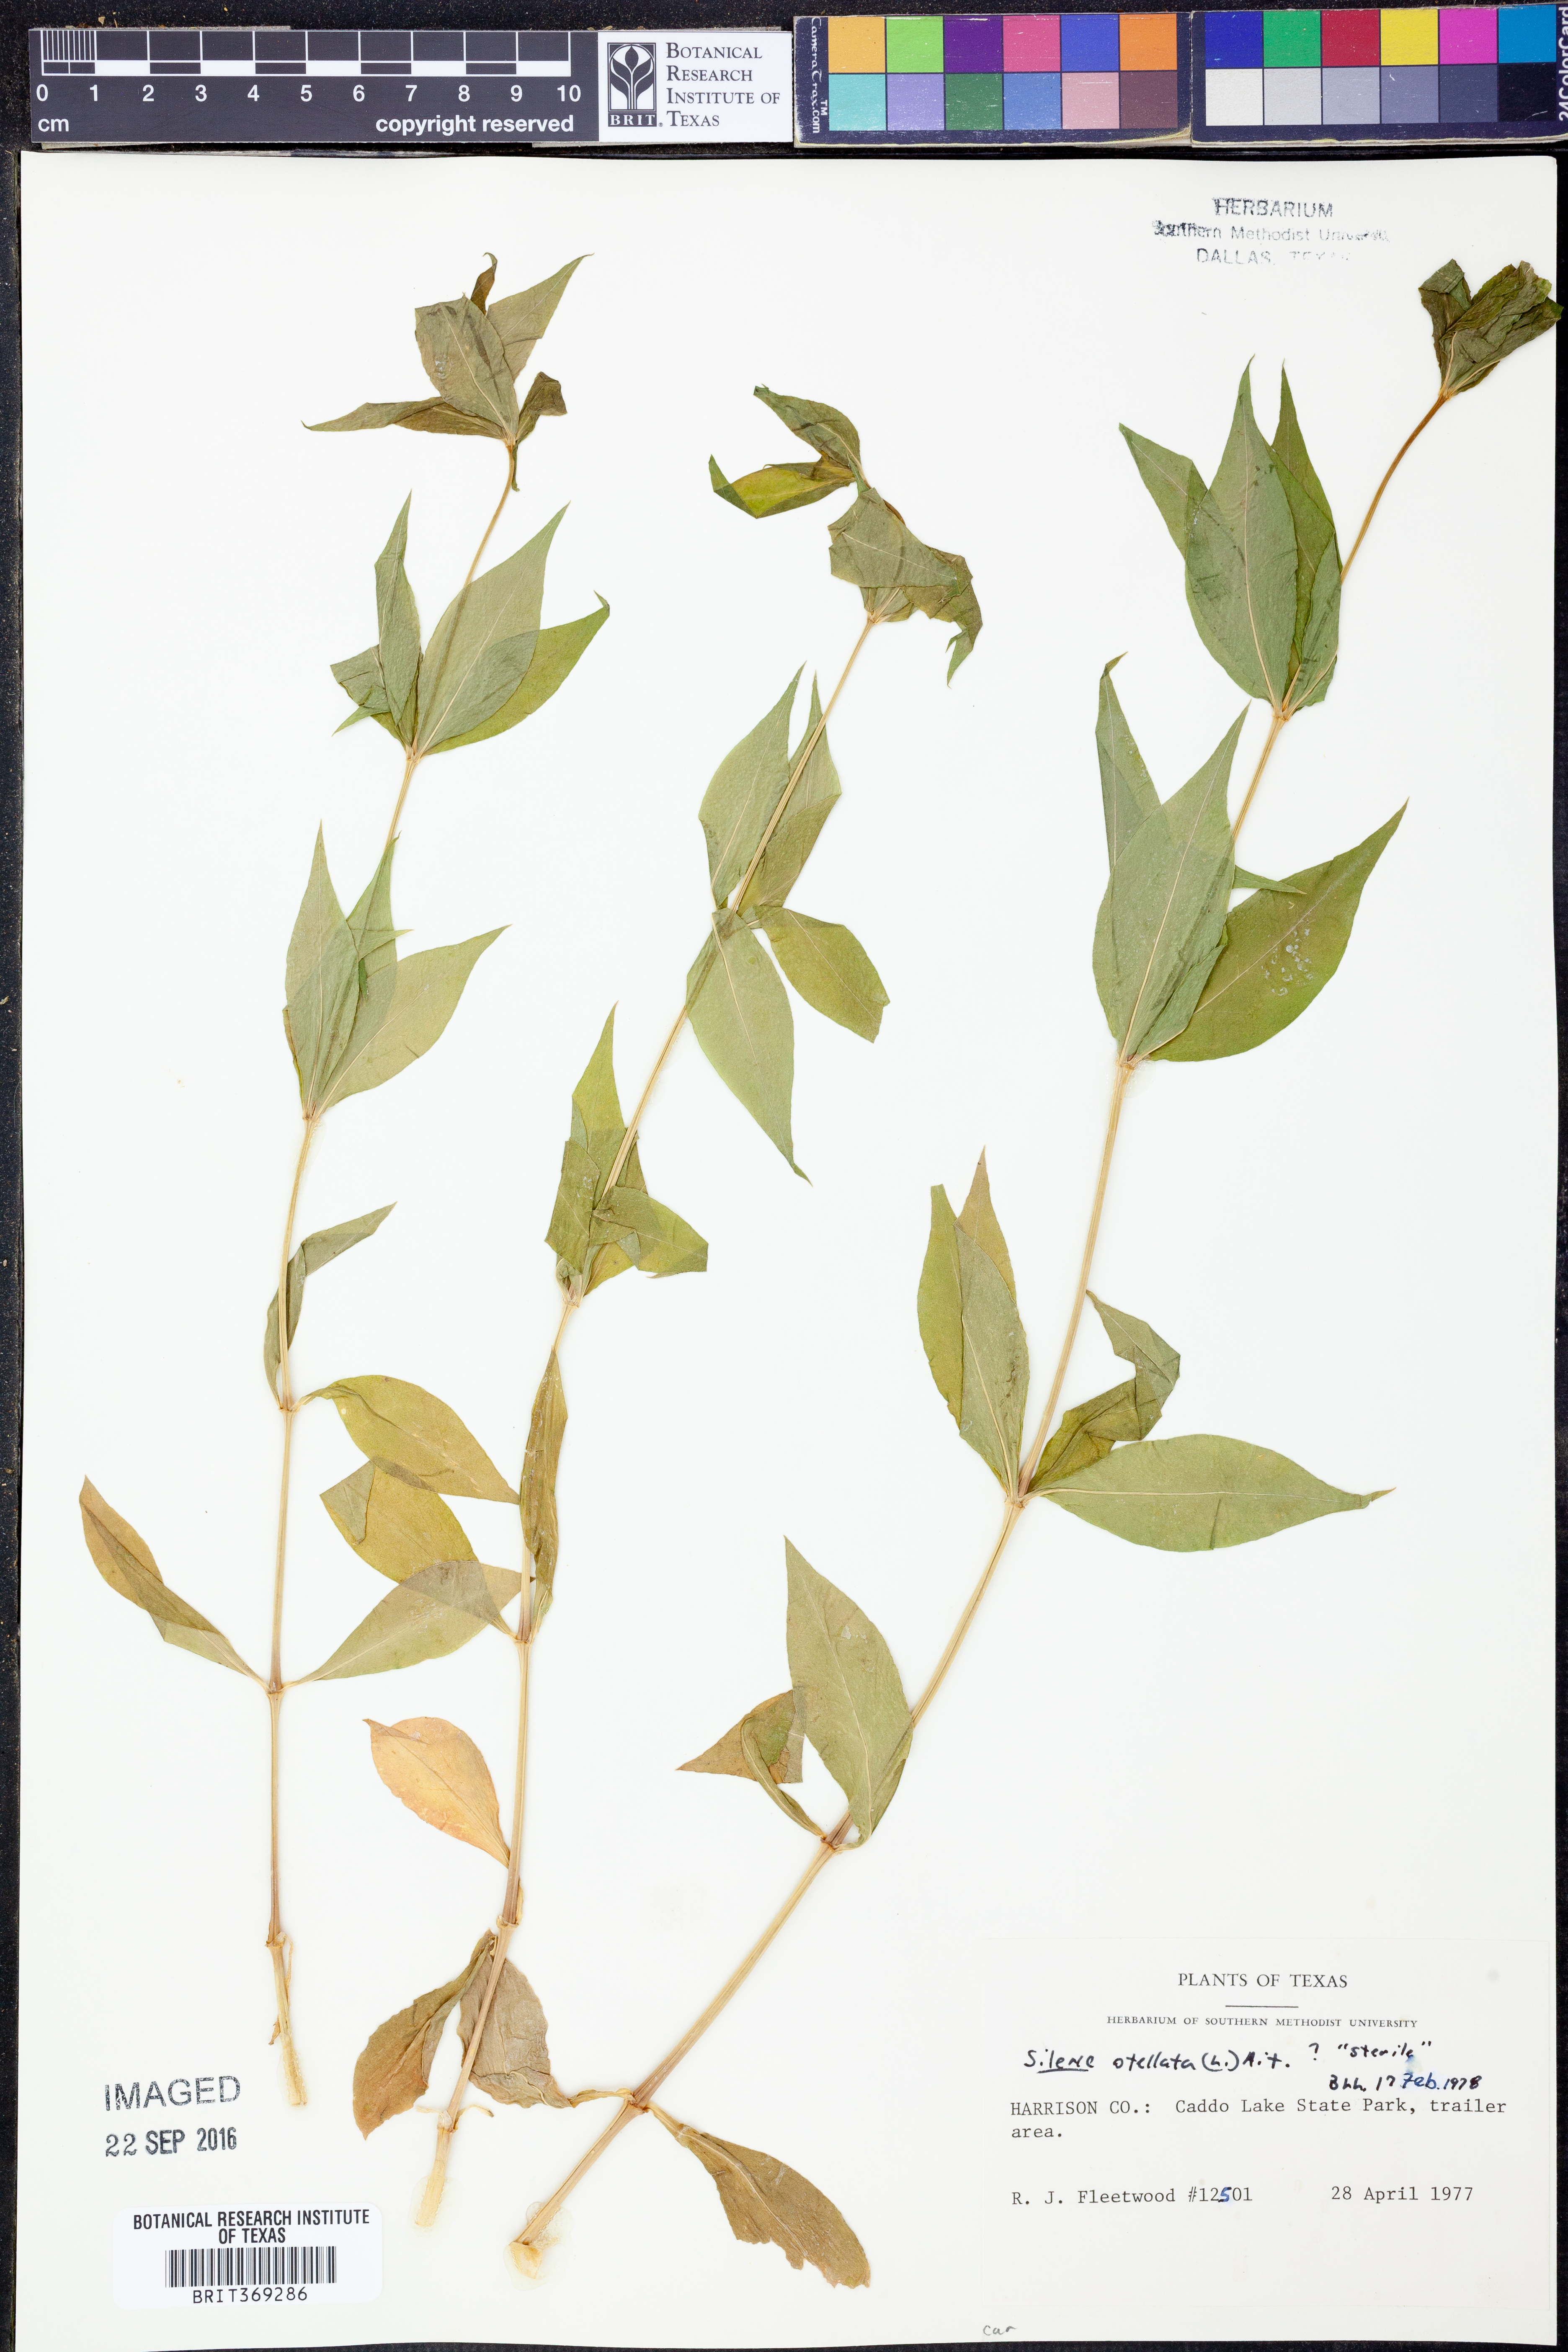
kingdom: Plantae
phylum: Tracheophyta
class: Magnoliopsida
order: Caryophyllales
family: Caryophyllaceae
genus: Silene
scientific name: Silene stellata
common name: Starry campion
